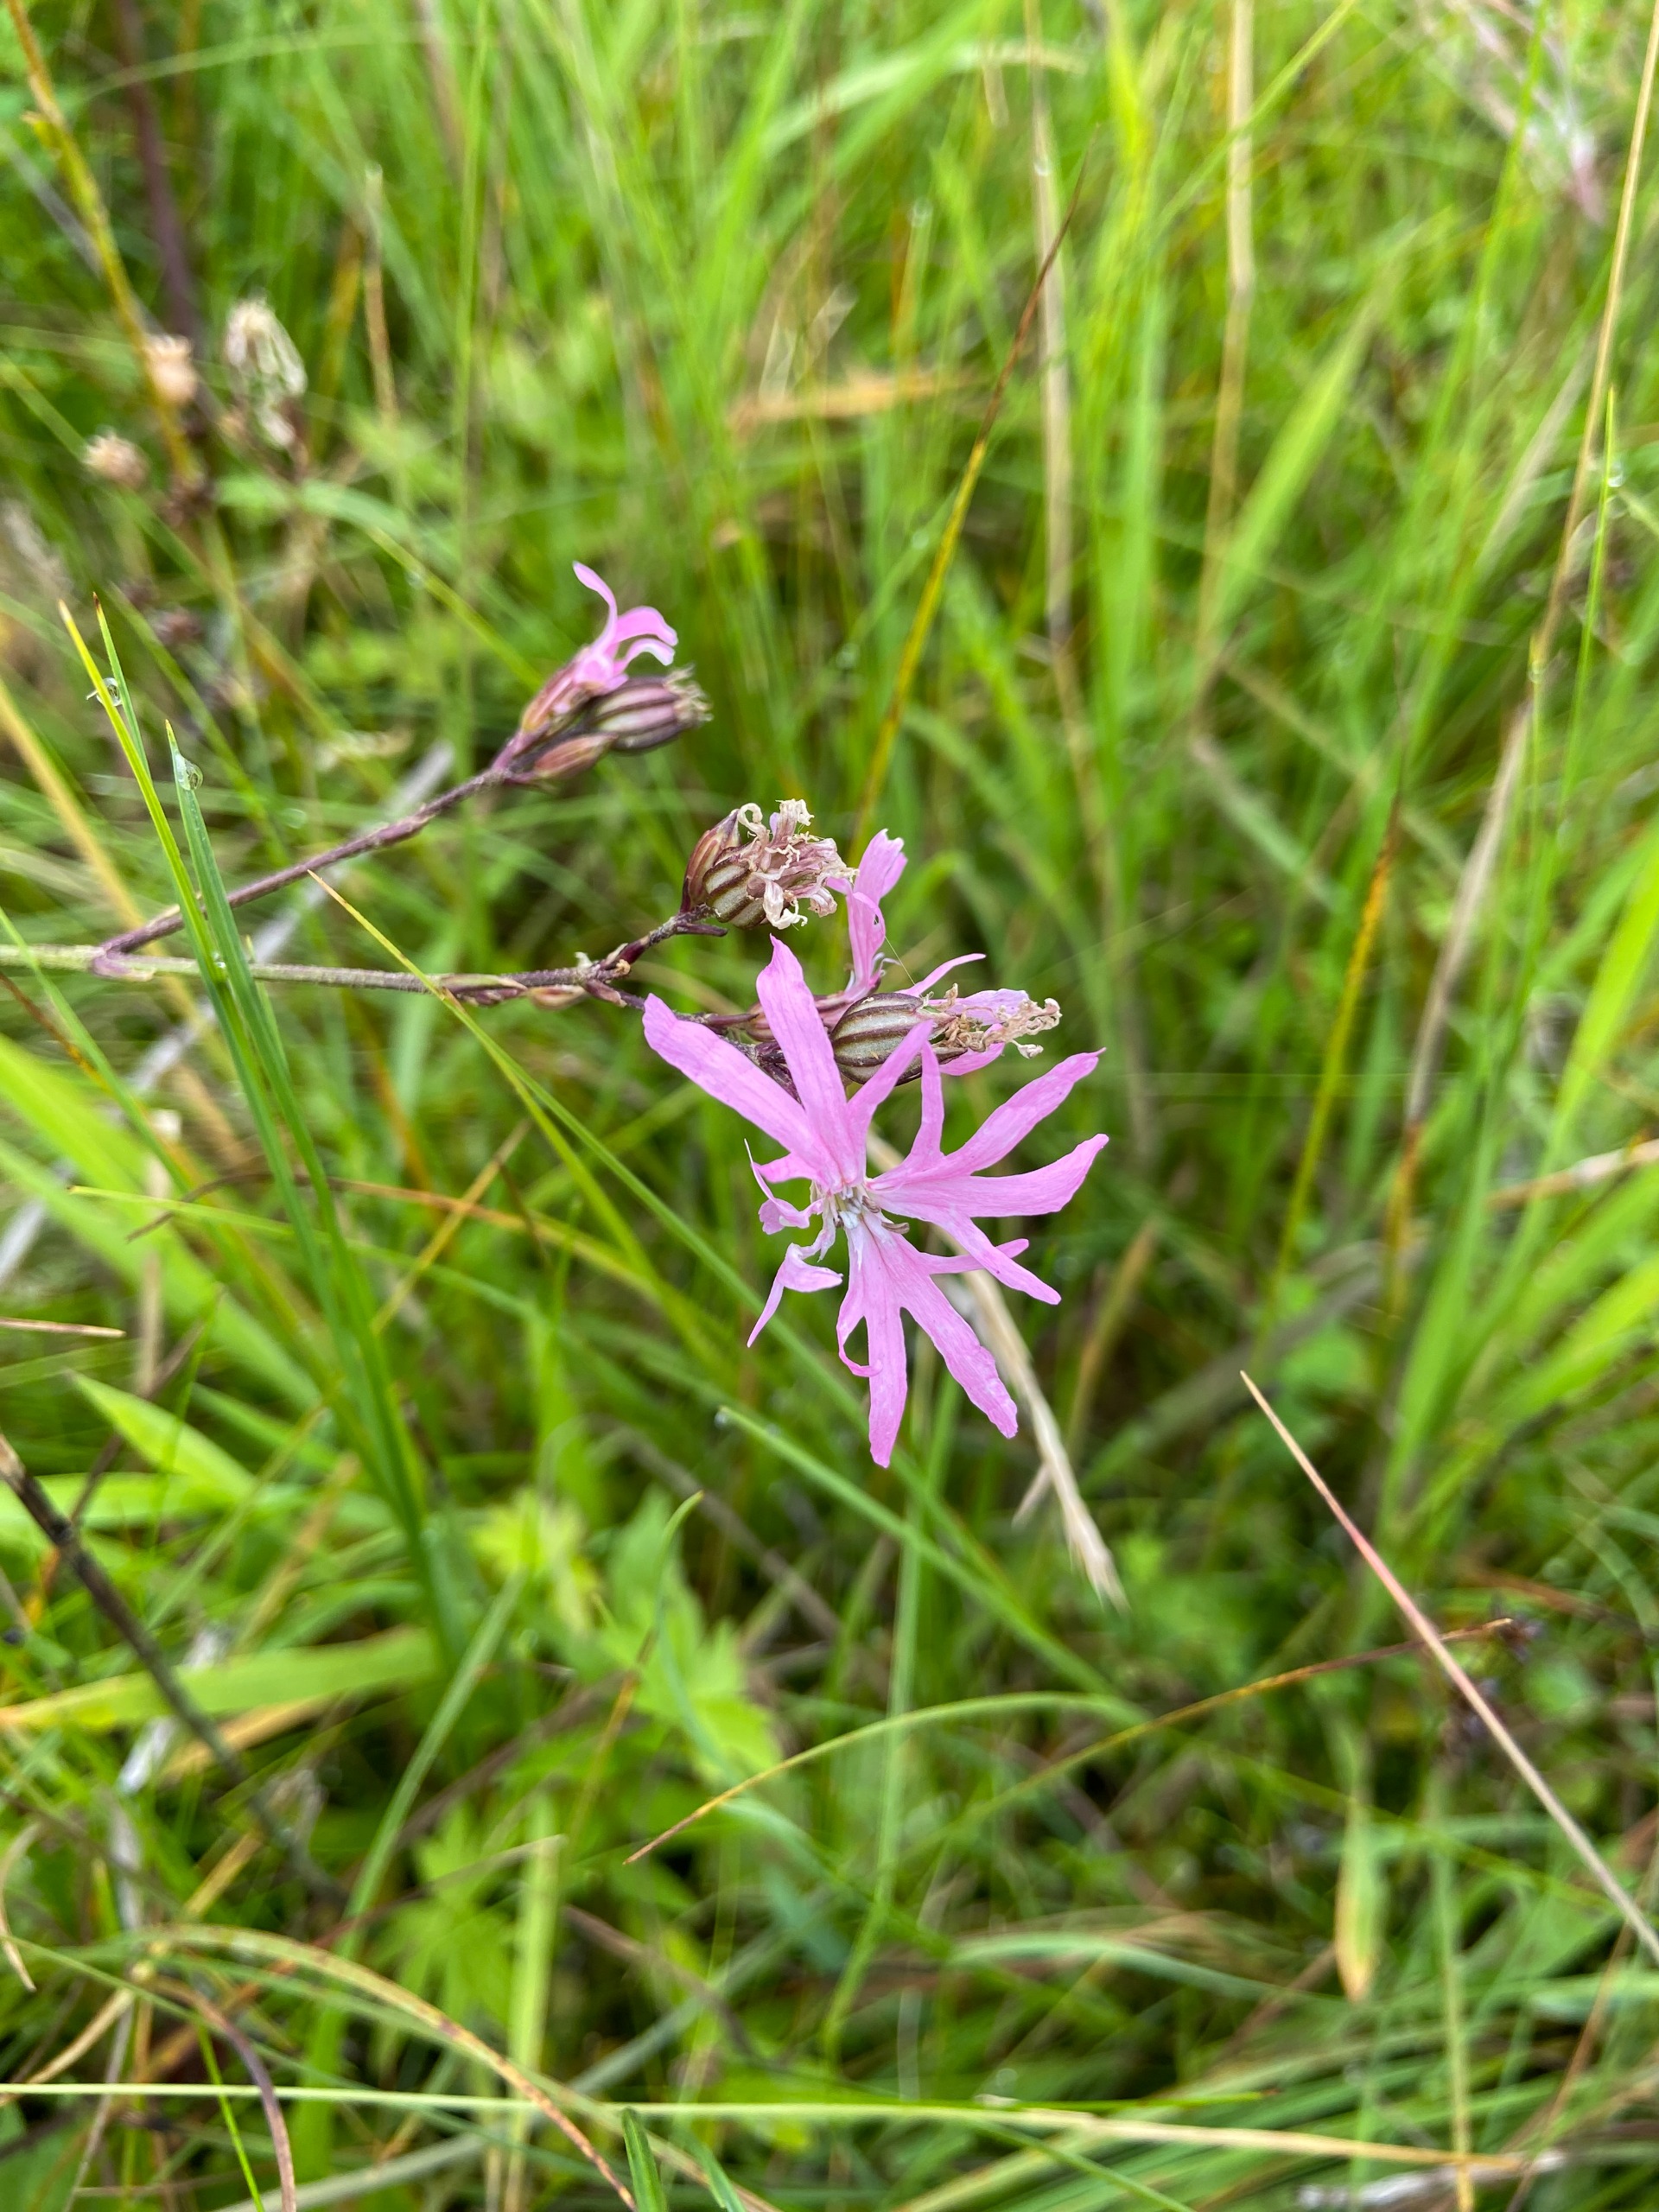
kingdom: Plantae
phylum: Tracheophyta
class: Magnoliopsida
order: Caryophyllales
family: Caryophyllaceae
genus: Silene
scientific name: Silene flos-cuculi
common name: Trævlekrone
